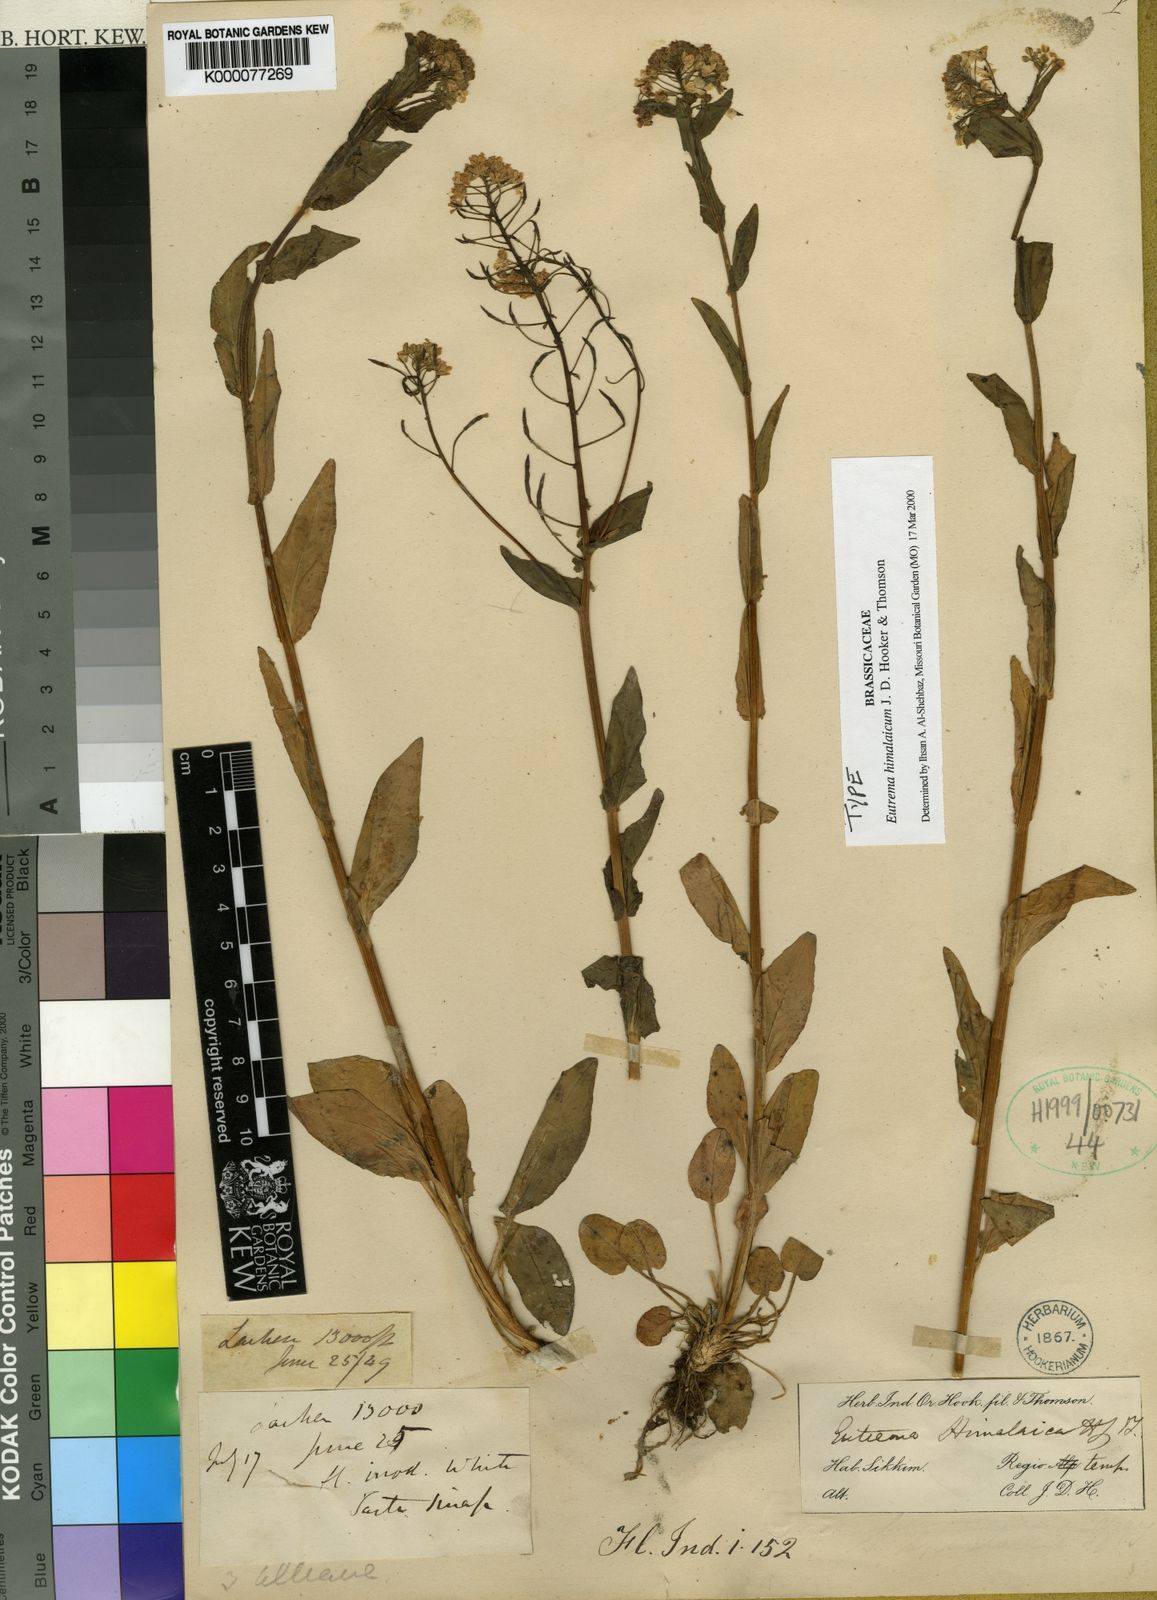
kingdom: Plantae
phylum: Tracheophyta
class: Magnoliopsida
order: Brassicales
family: Brassicaceae
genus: Eutrema
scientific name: Eutrema himalaicum
